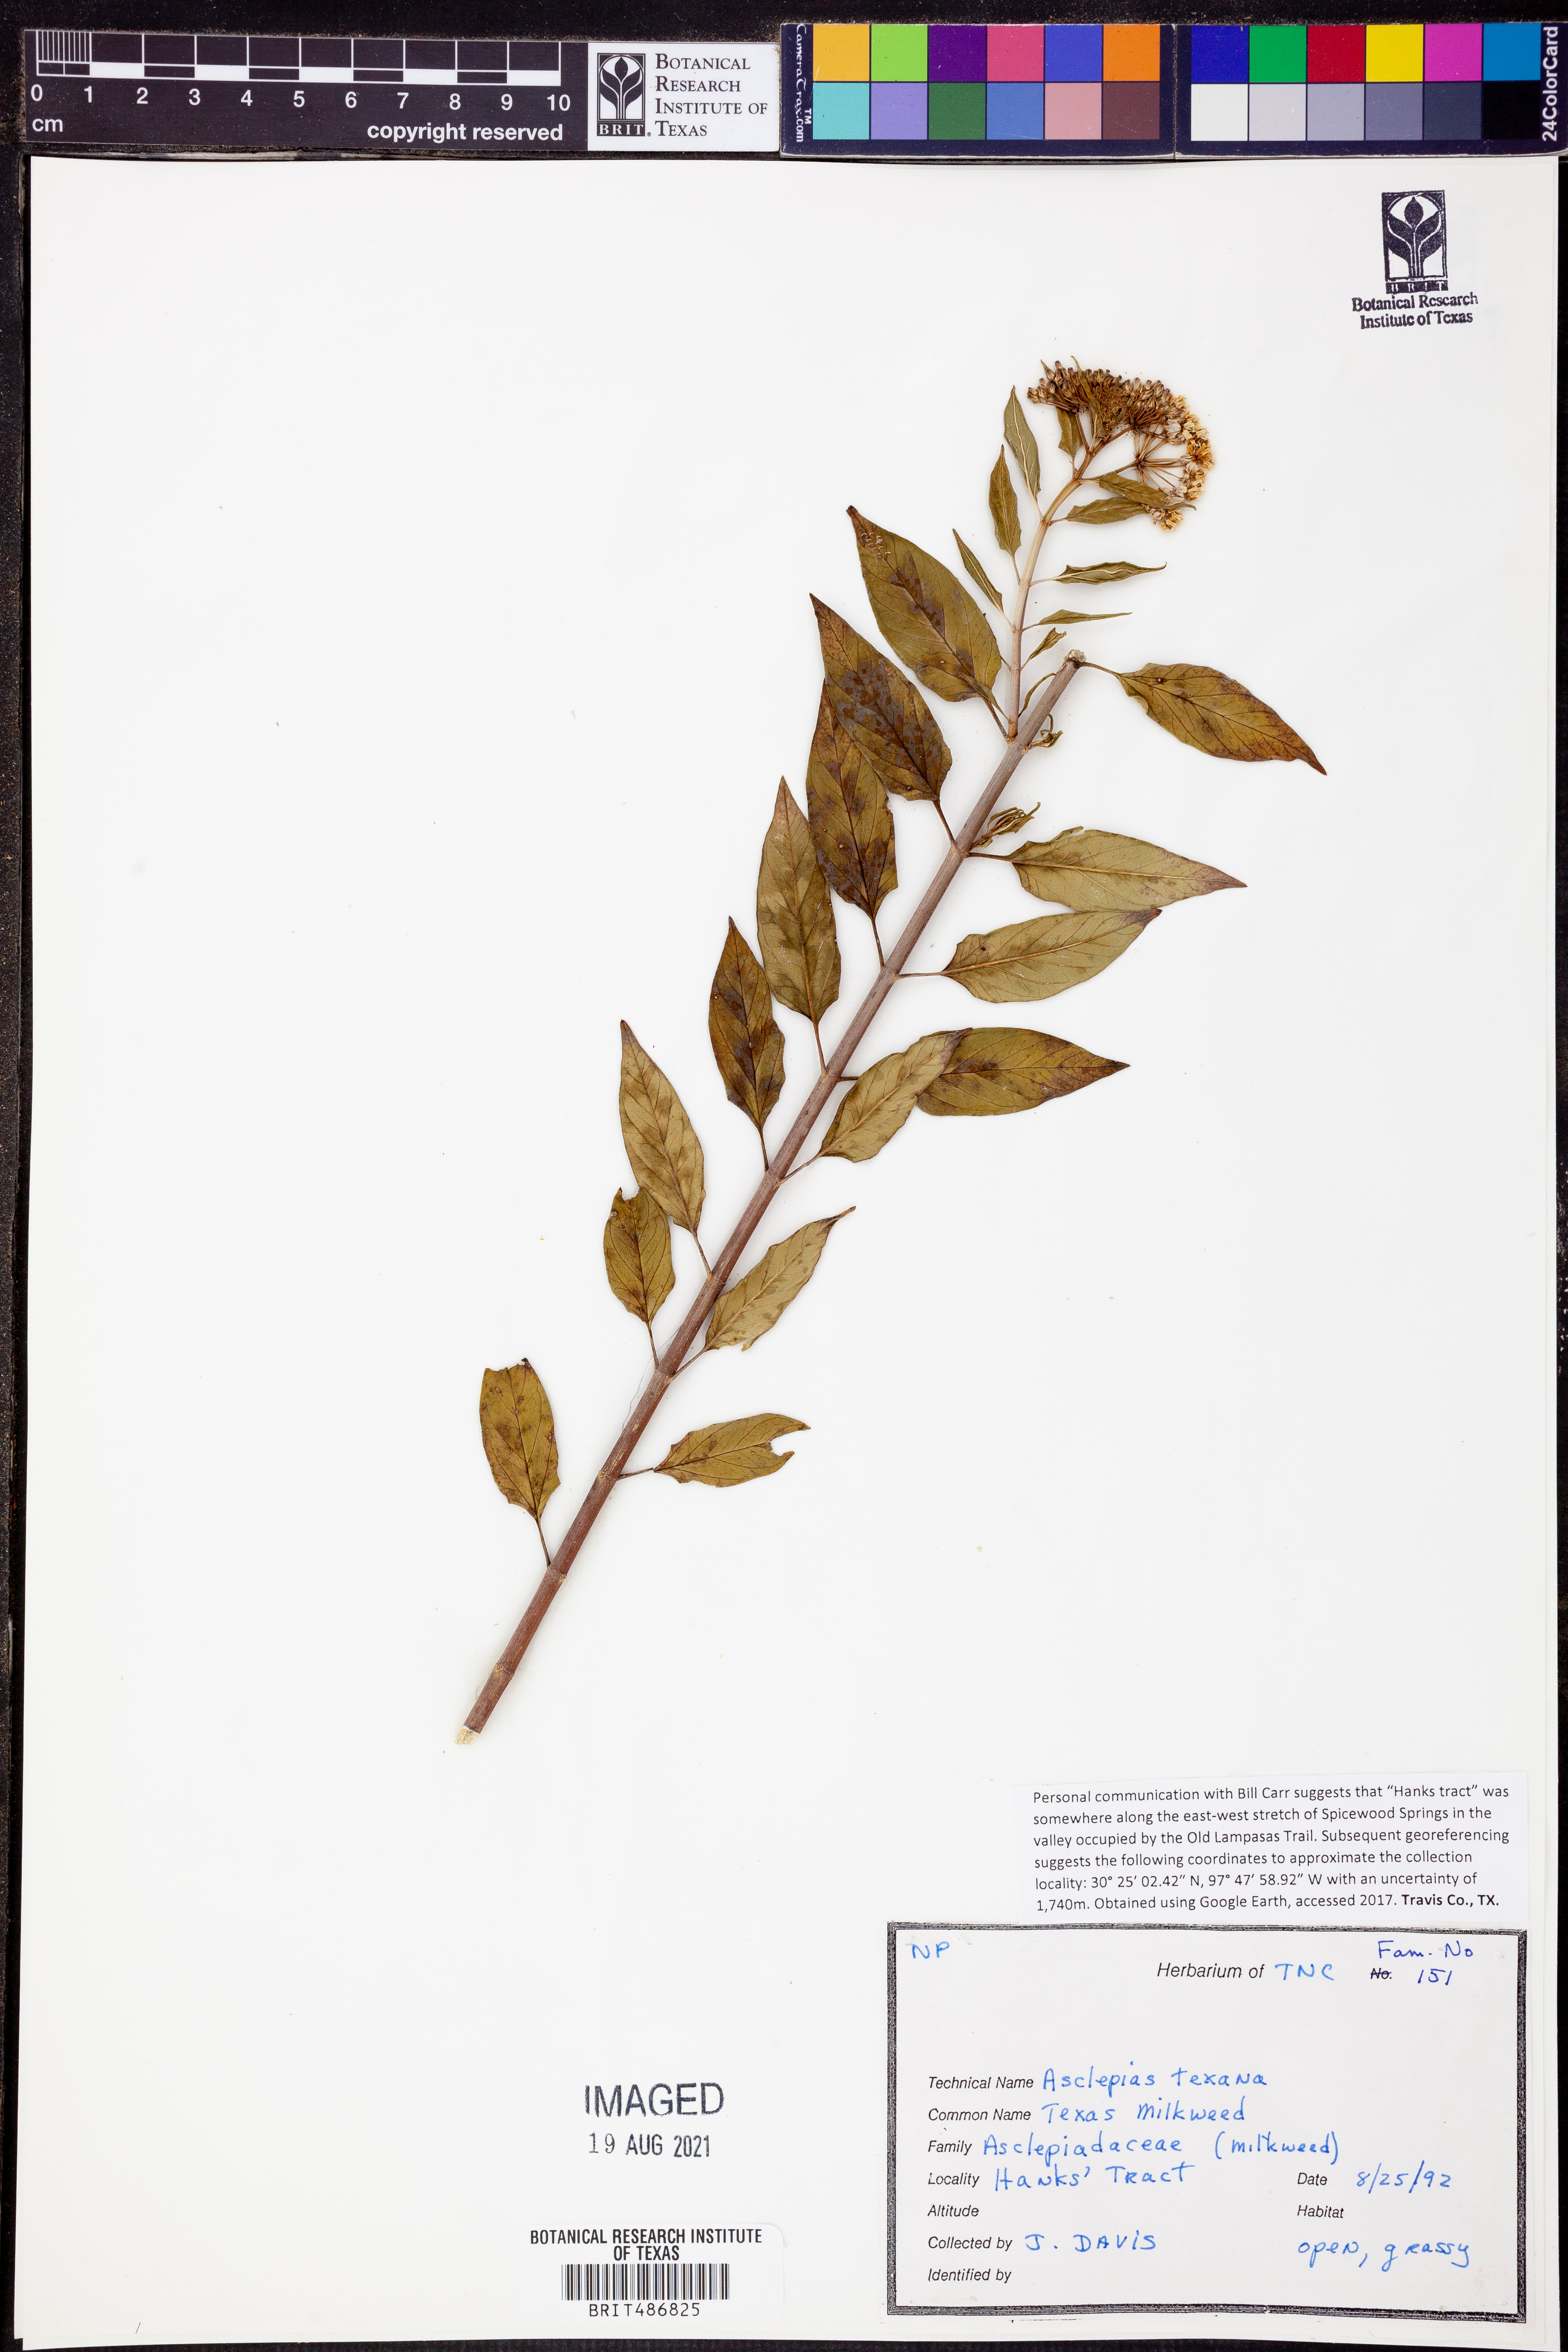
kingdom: Plantae
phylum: Tracheophyta
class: Magnoliopsida
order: Gentianales
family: Apocynaceae
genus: Asclepias
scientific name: Asclepias texana
